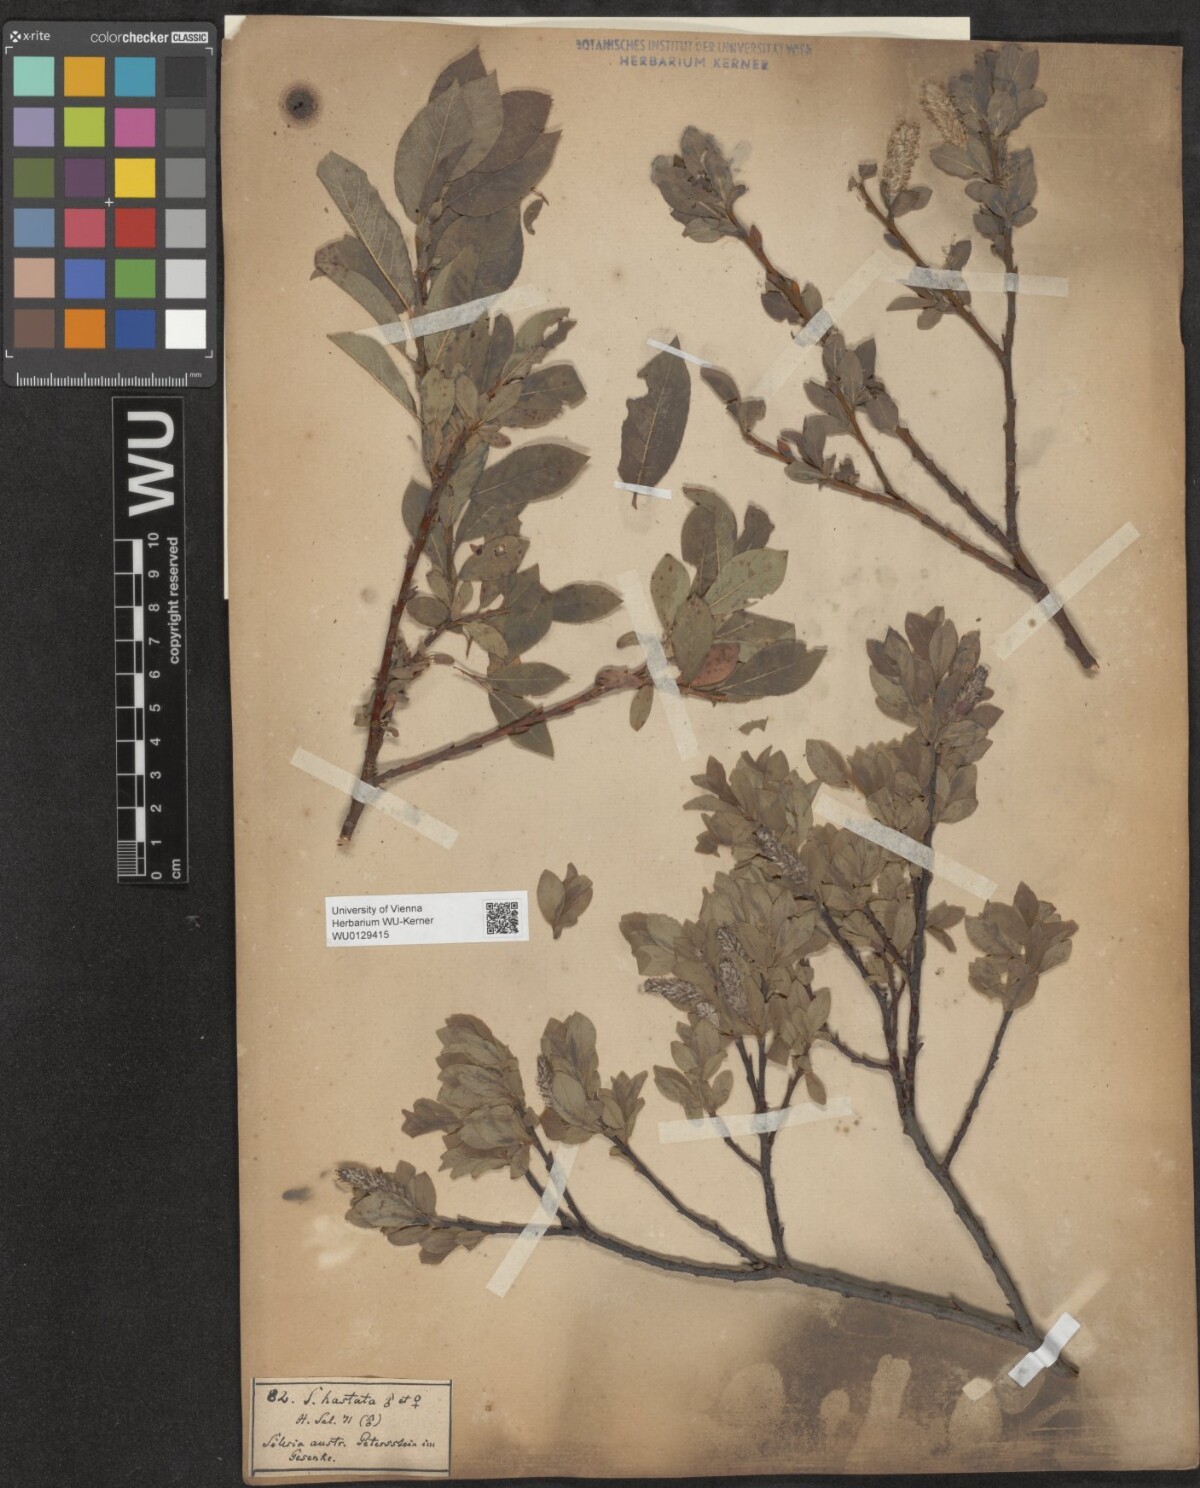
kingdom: Plantae
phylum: Tracheophyta
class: Magnoliopsida
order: Malpighiales
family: Salicaceae
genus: Salix
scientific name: Salix hastata
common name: Halberd willow
